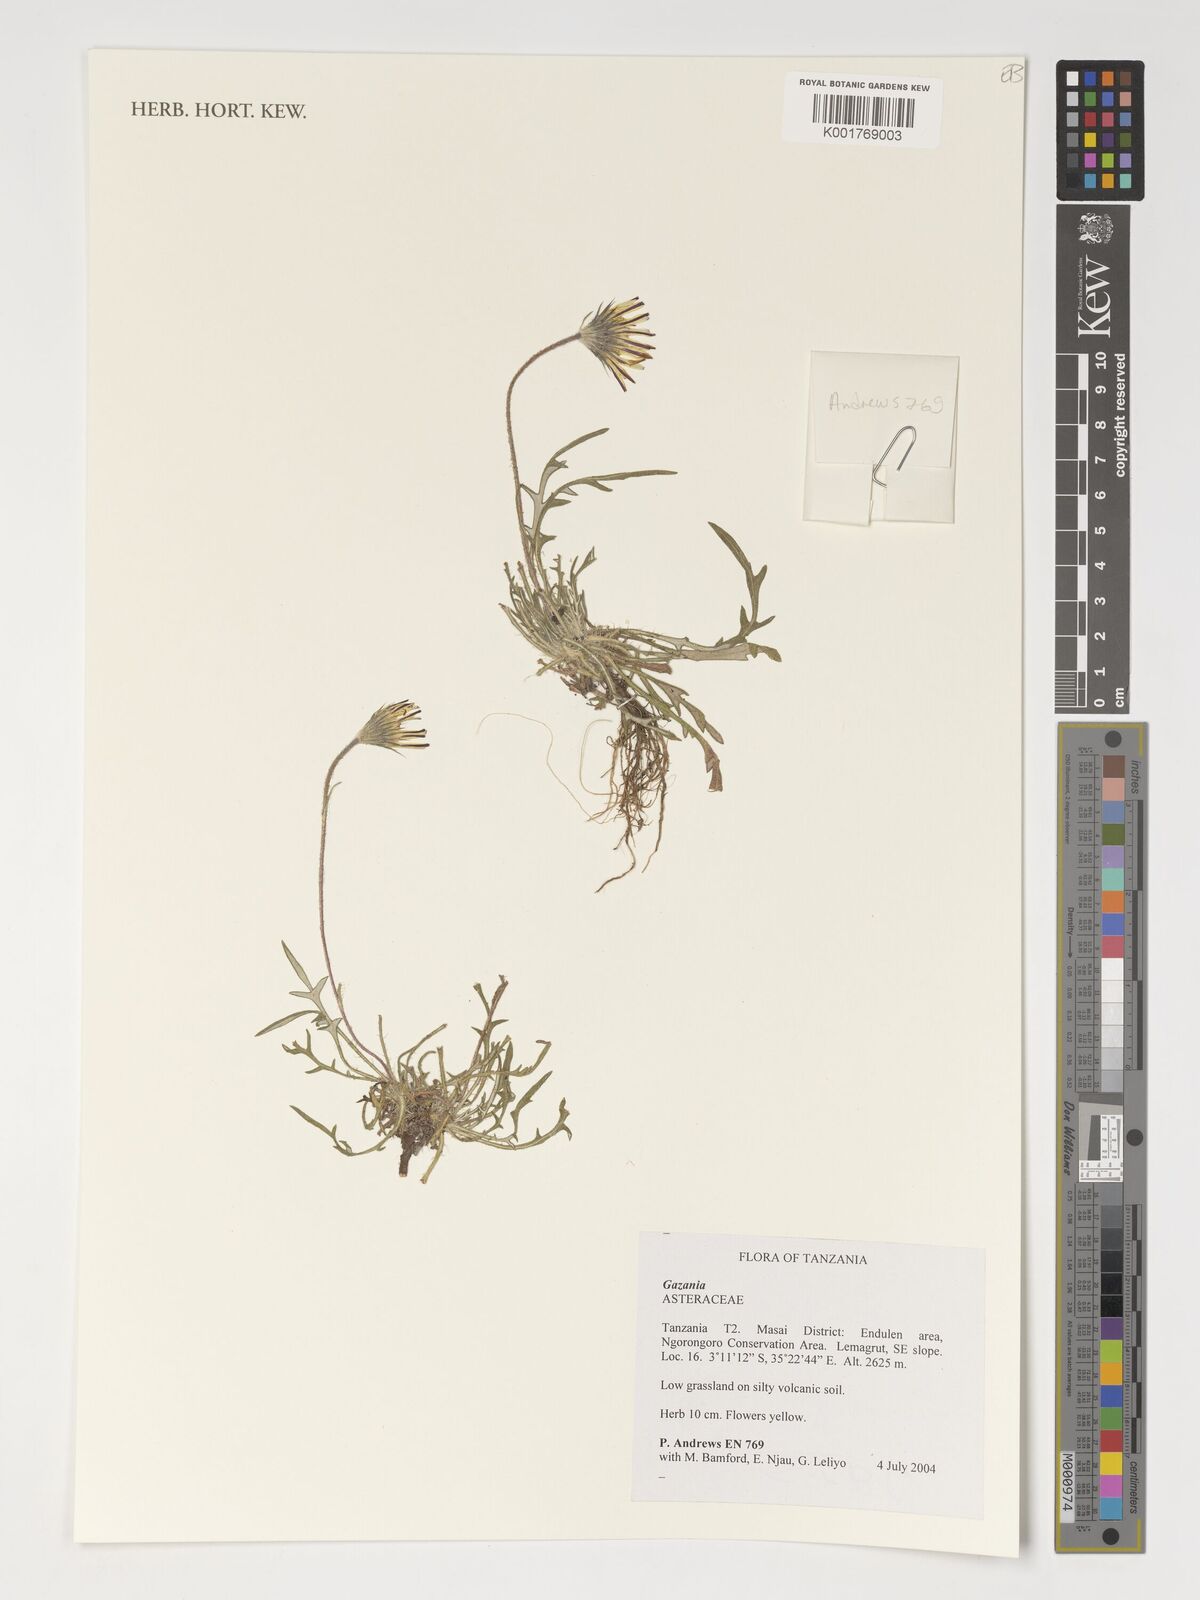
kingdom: Plantae
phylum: Tracheophyta
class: Magnoliopsida
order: Asterales
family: Asteraceae
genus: Gazania
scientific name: Gazania
